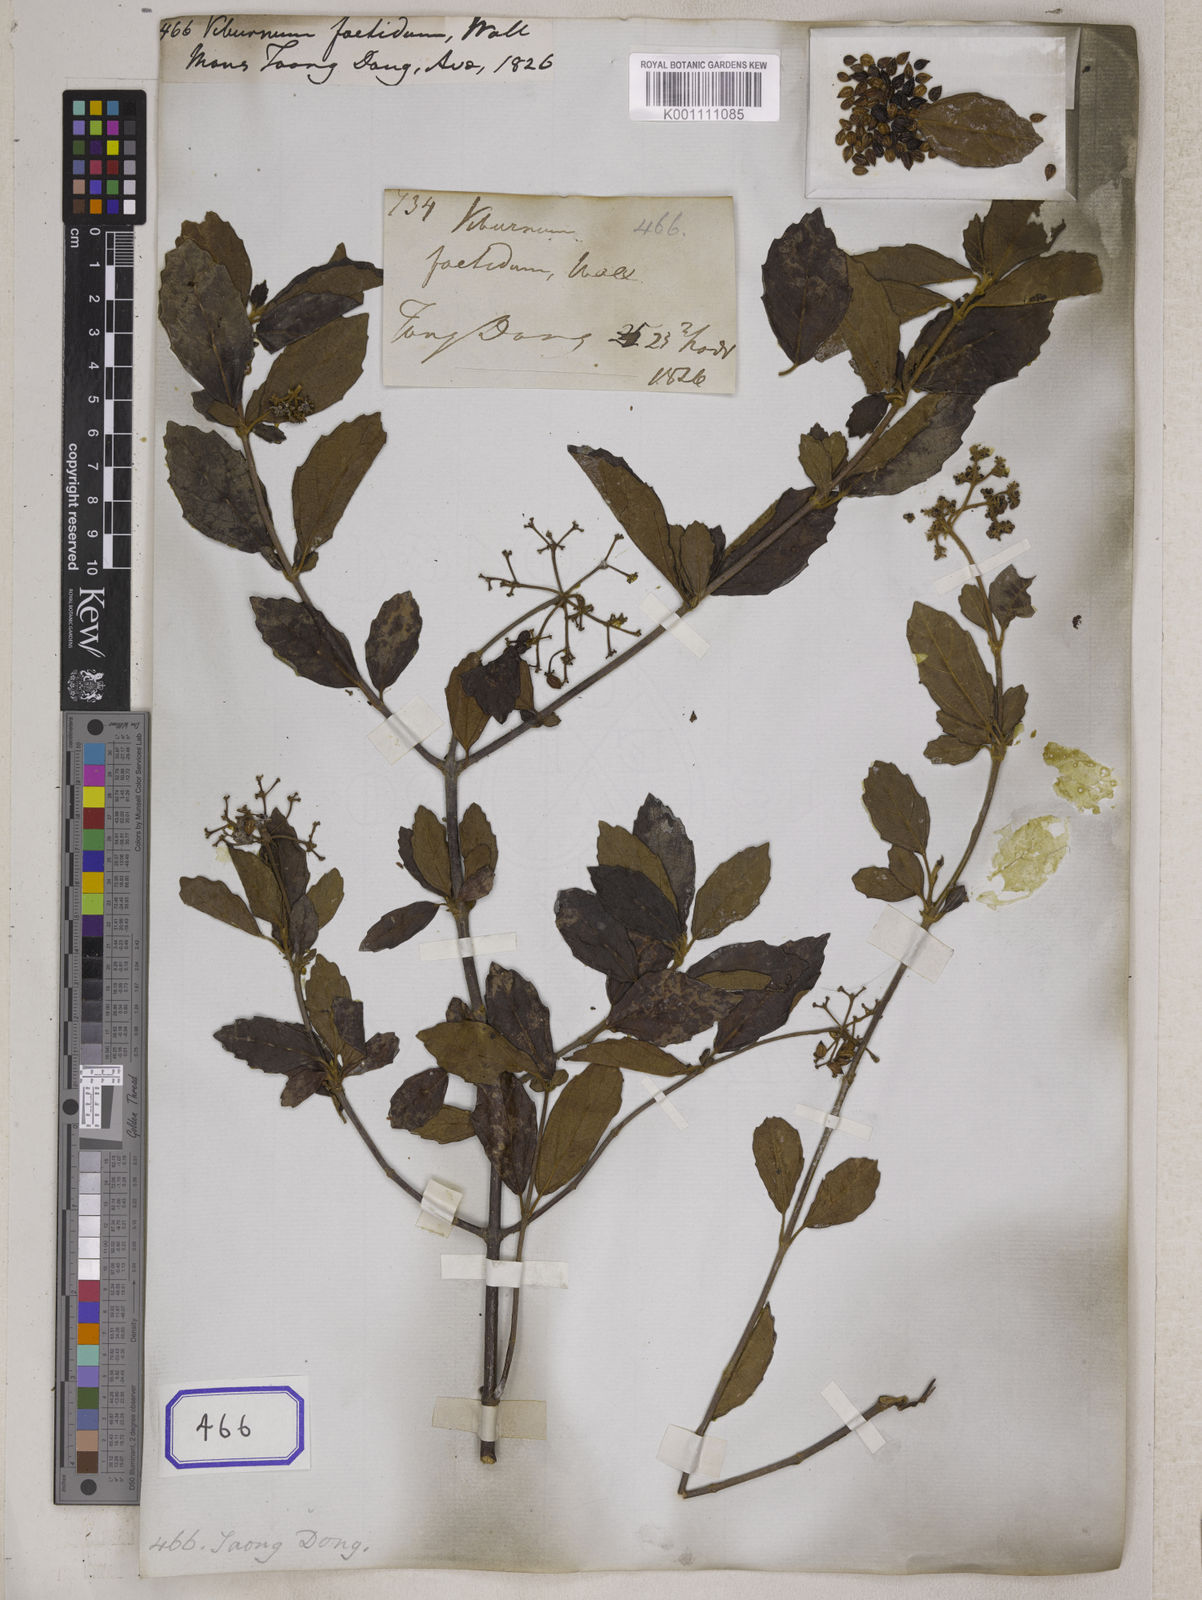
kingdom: Plantae
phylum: Tracheophyta
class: Magnoliopsida
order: Dipsacales
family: Viburnaceae
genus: Viburnum
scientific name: Viburnum foetidum
